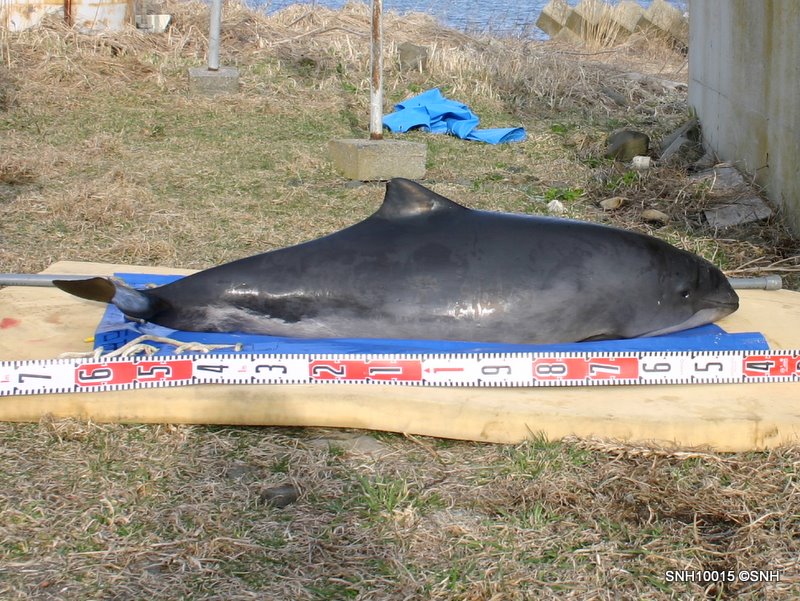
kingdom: Animalia
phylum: Chordata
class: Mammalia
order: Cetacea
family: Phocoenidae
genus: Phocoena
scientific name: Phocoena phocoena
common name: Harbour porpoise
